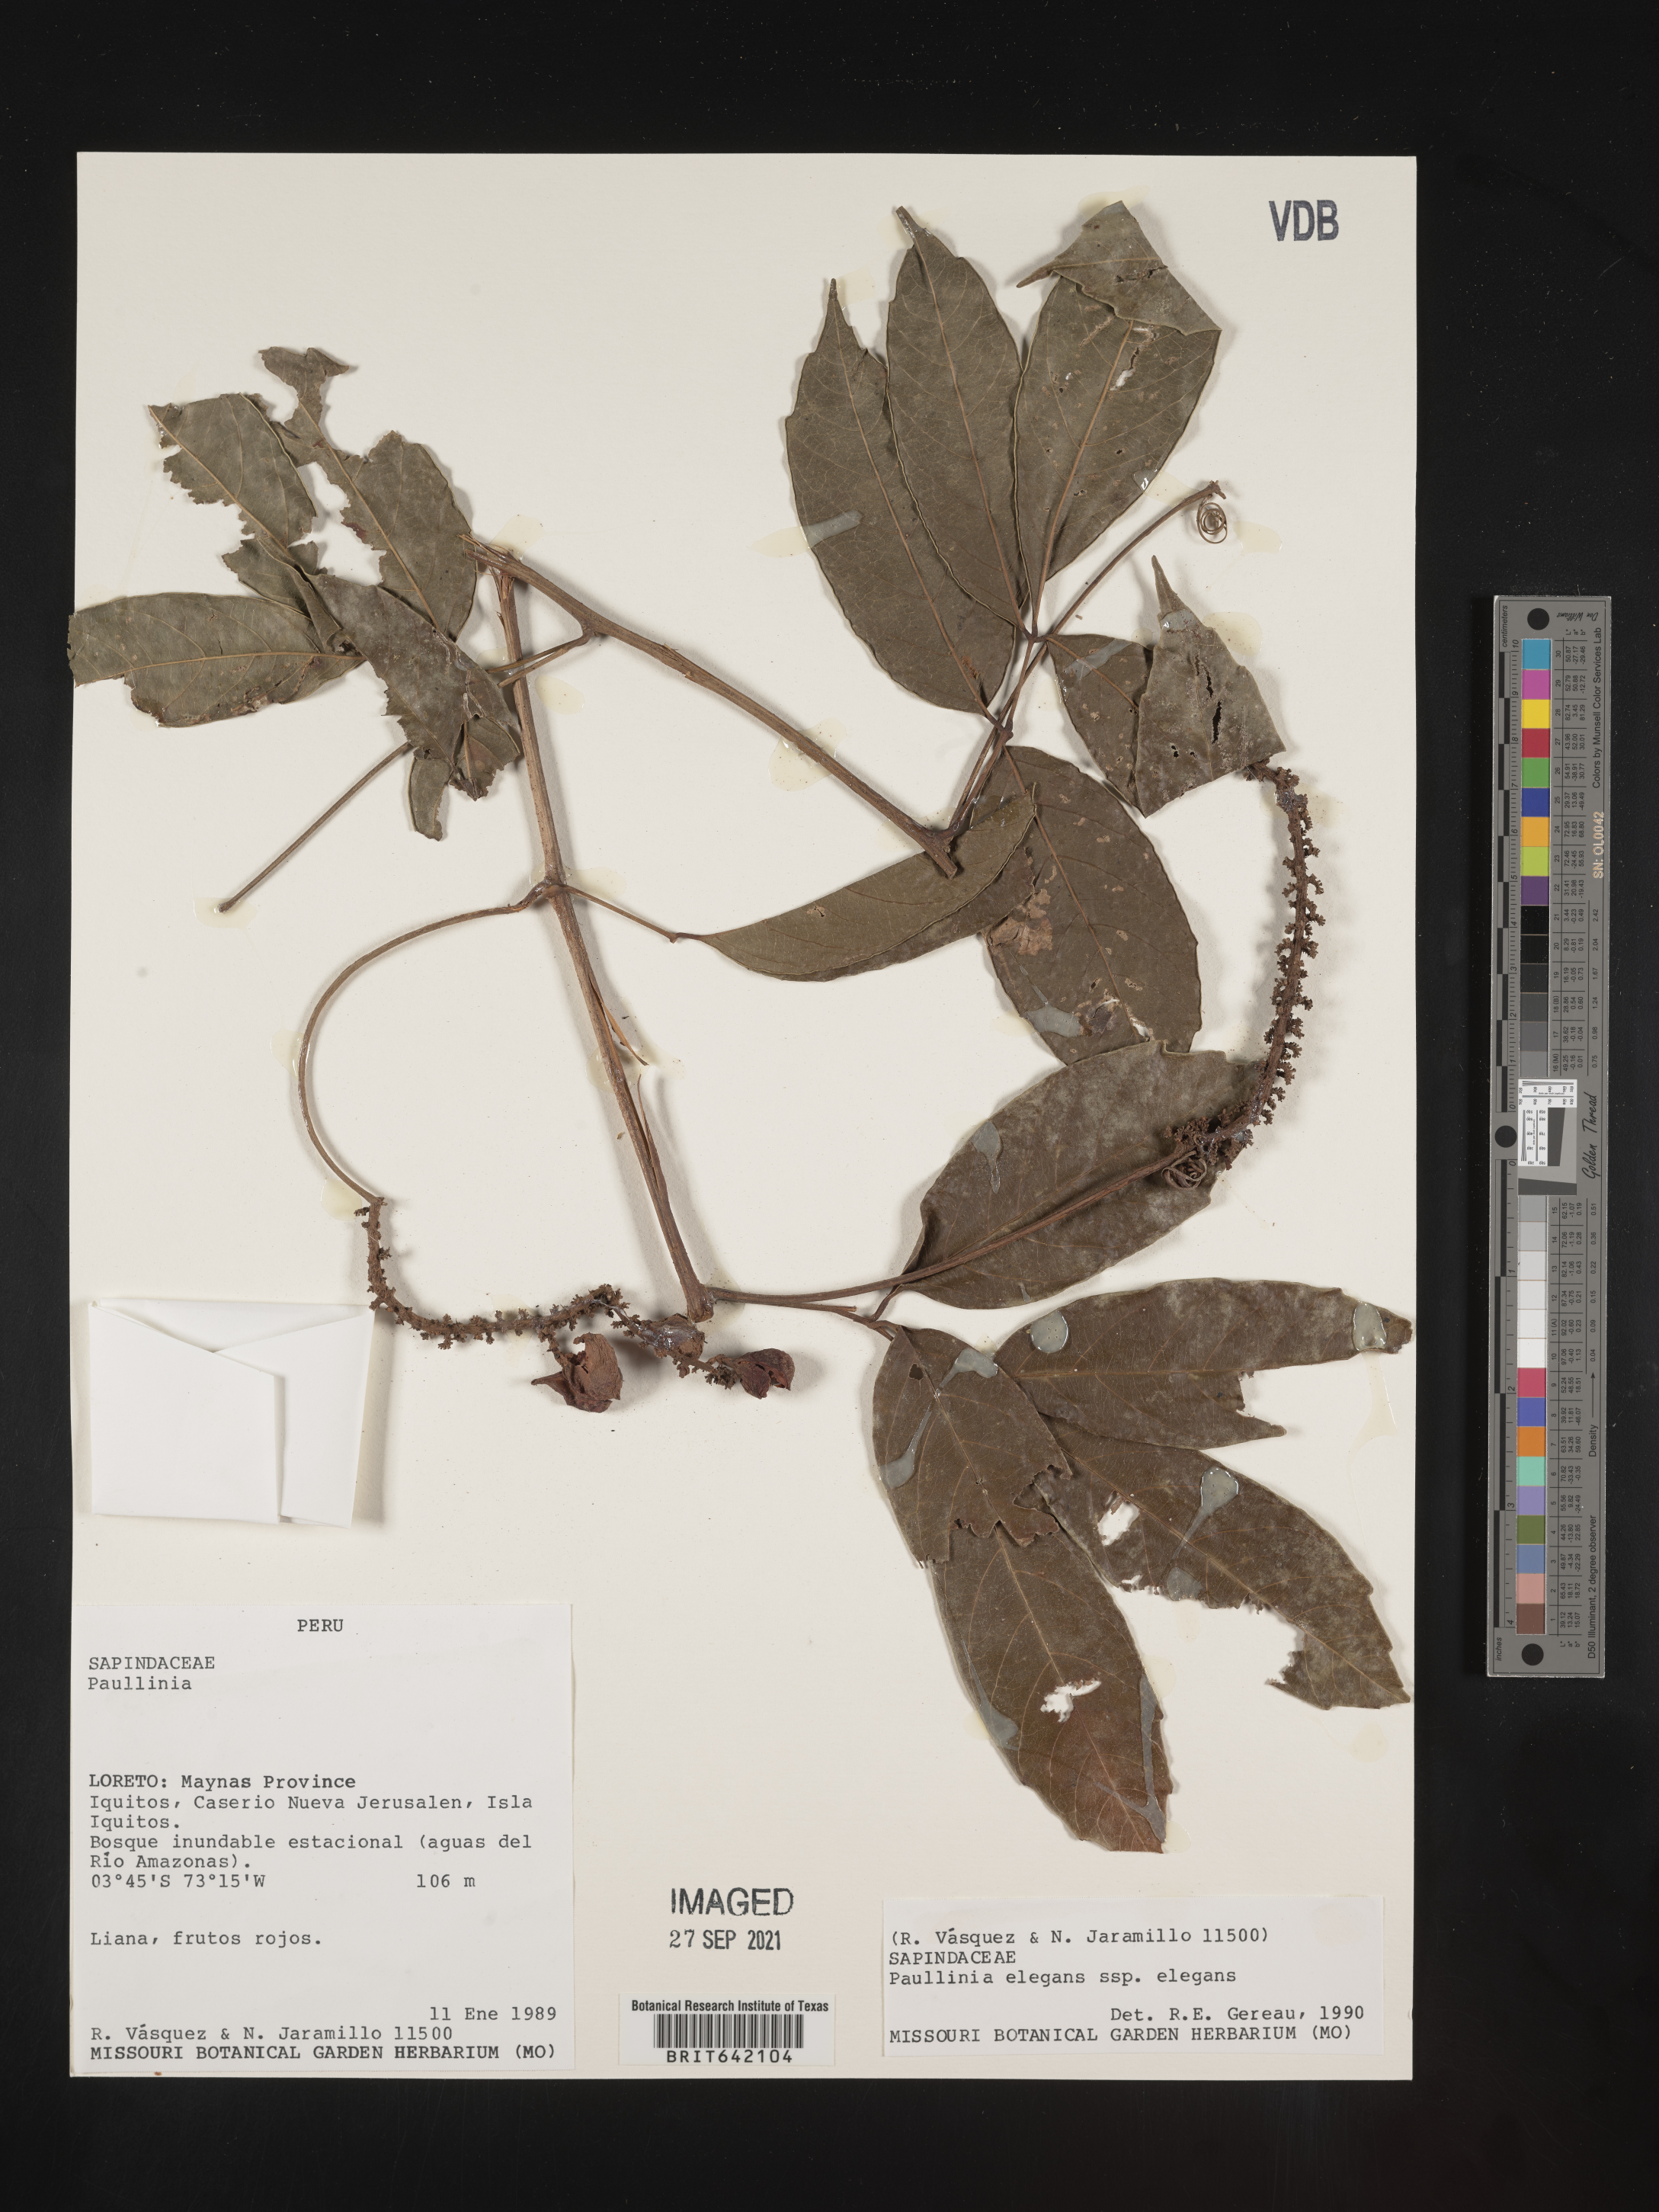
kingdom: Plantae
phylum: Tracheophyta
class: Magnoliopsida
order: Sapindales
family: Sapindaceae
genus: Paullinia
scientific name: Paullinia
